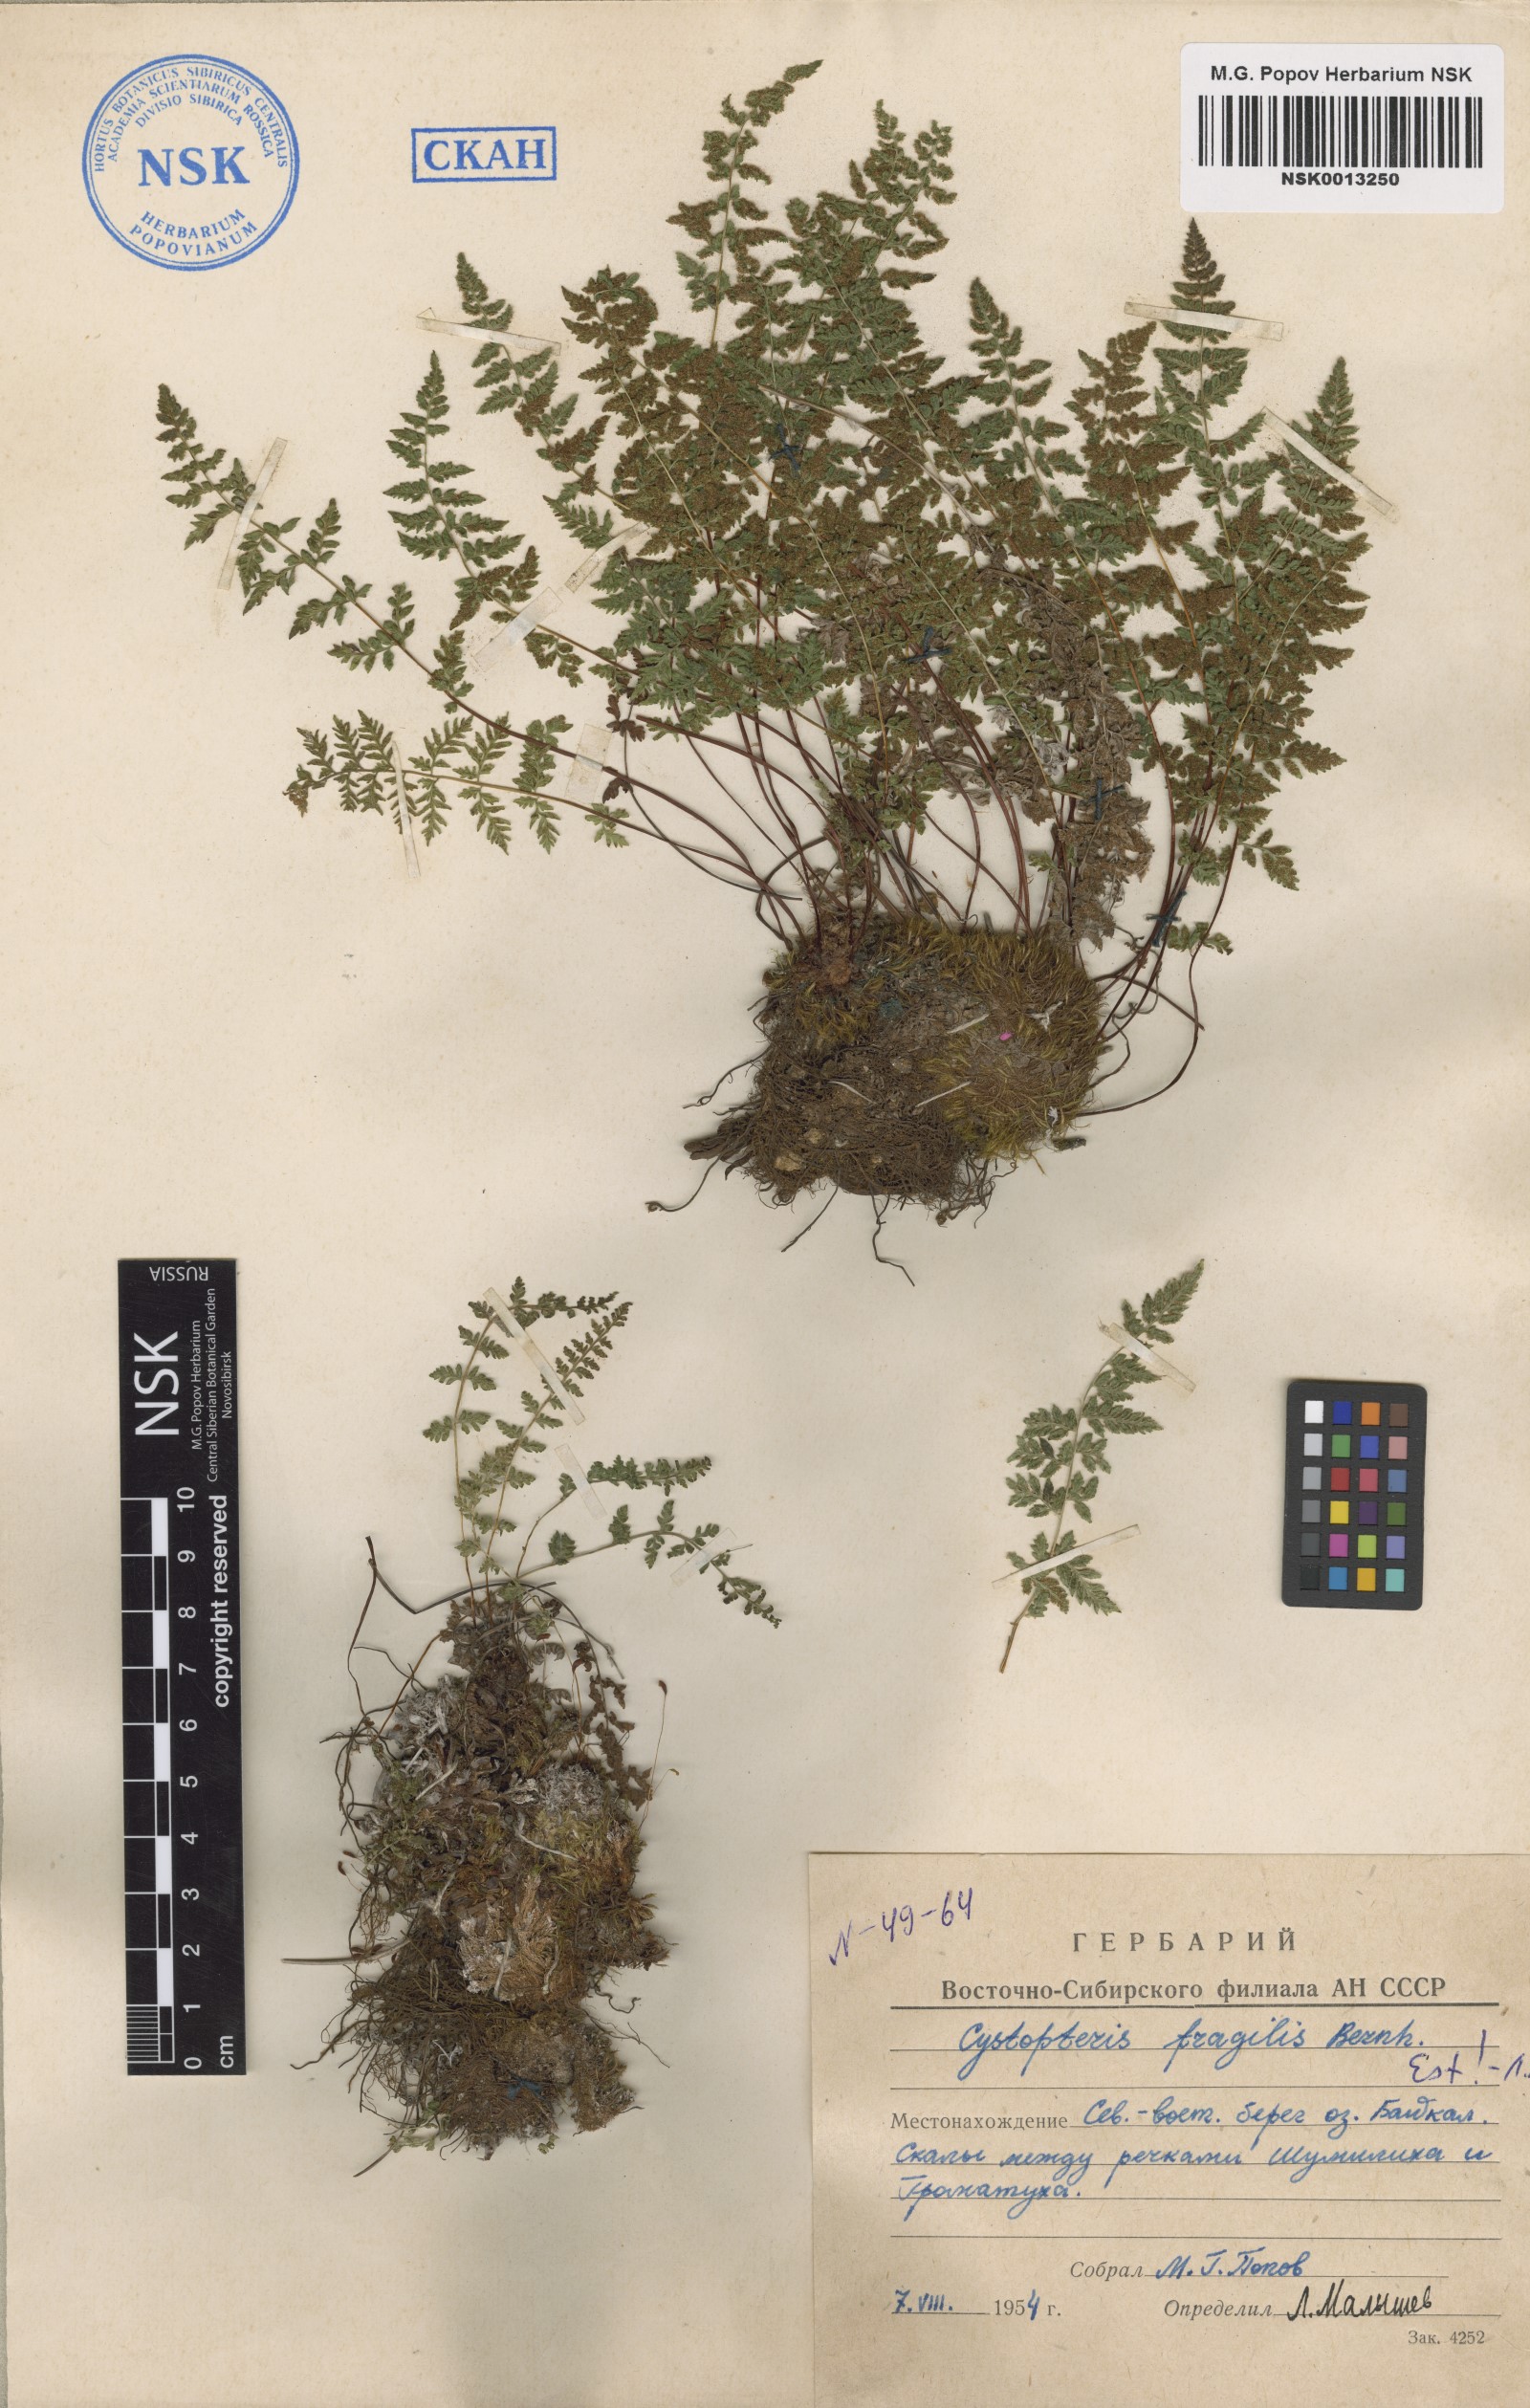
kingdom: Plantae
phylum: Tracheophyta
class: Polypodiopsida
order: Polypodiales
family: Cystopteridaceae
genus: Cystopteris
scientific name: Cystopteris fragilis
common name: Brittle bladder fern
